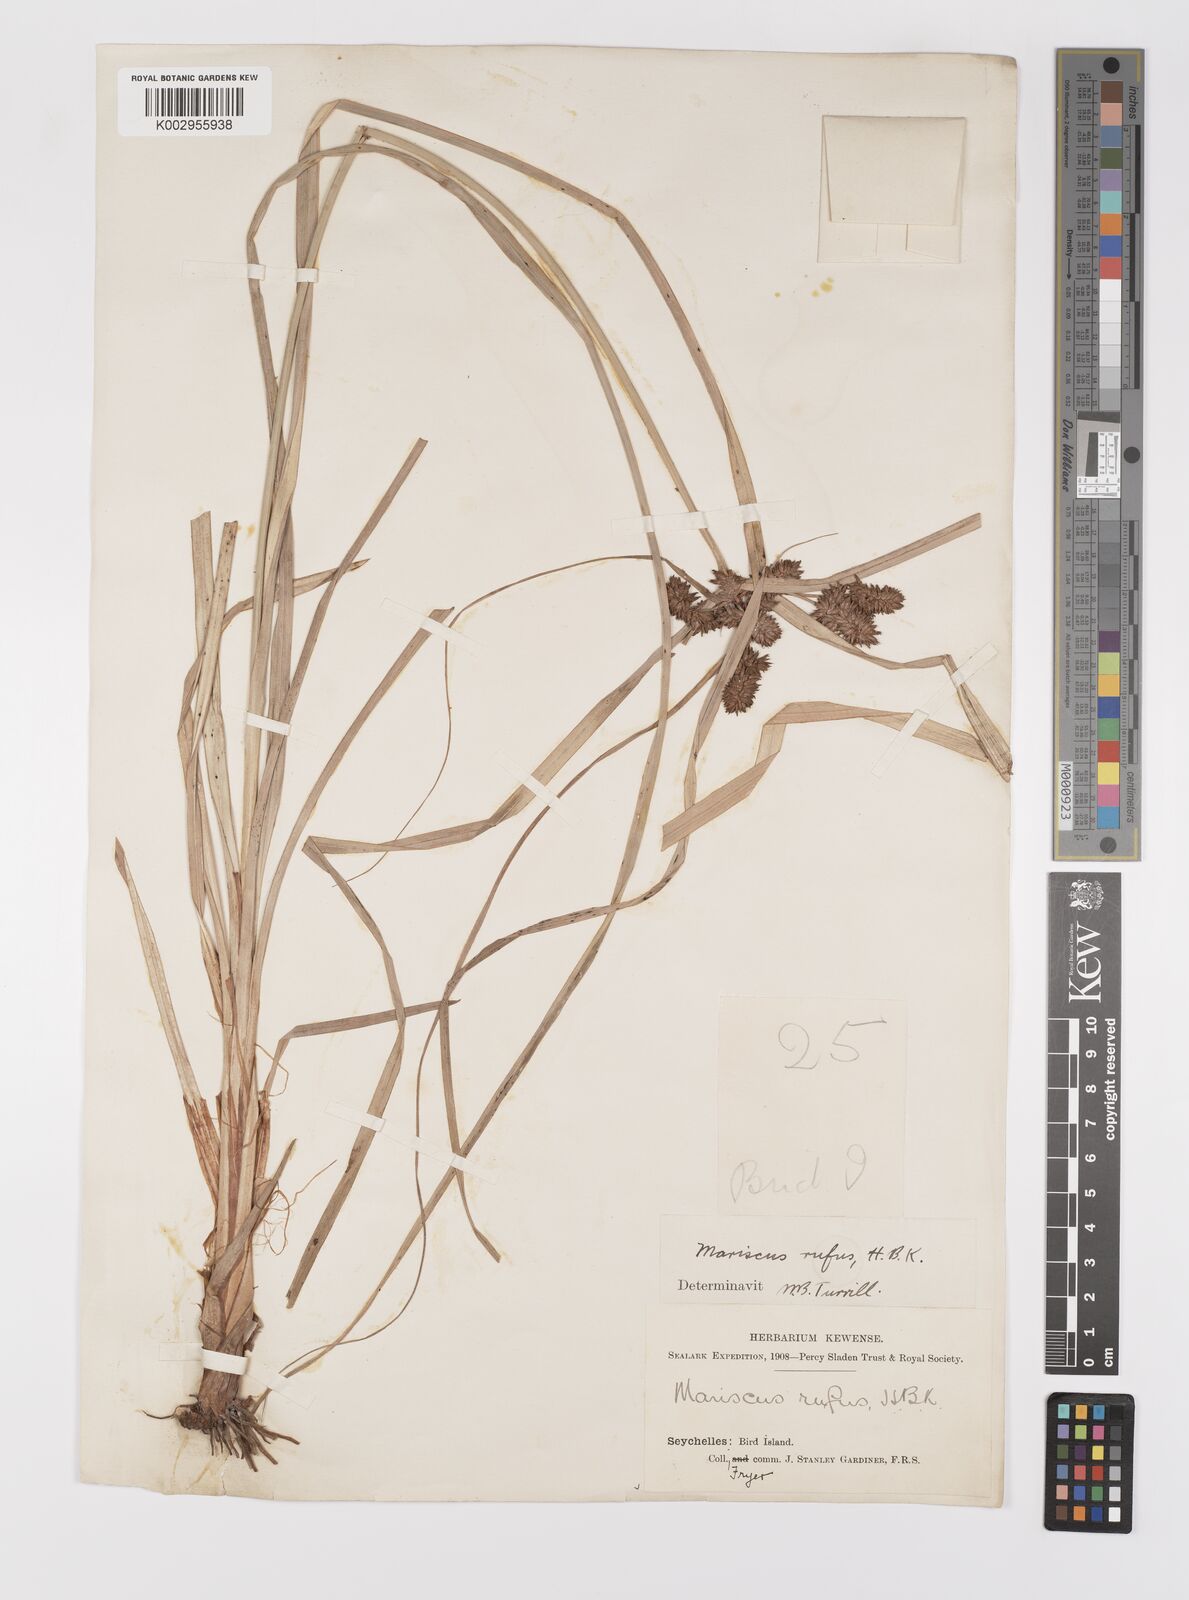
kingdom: Plantae
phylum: Tracheophyta
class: Liliopsida
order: Poales
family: Cyperaceae
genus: Cyperus
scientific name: Cyperus ligularis
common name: Swamp flat sedge
